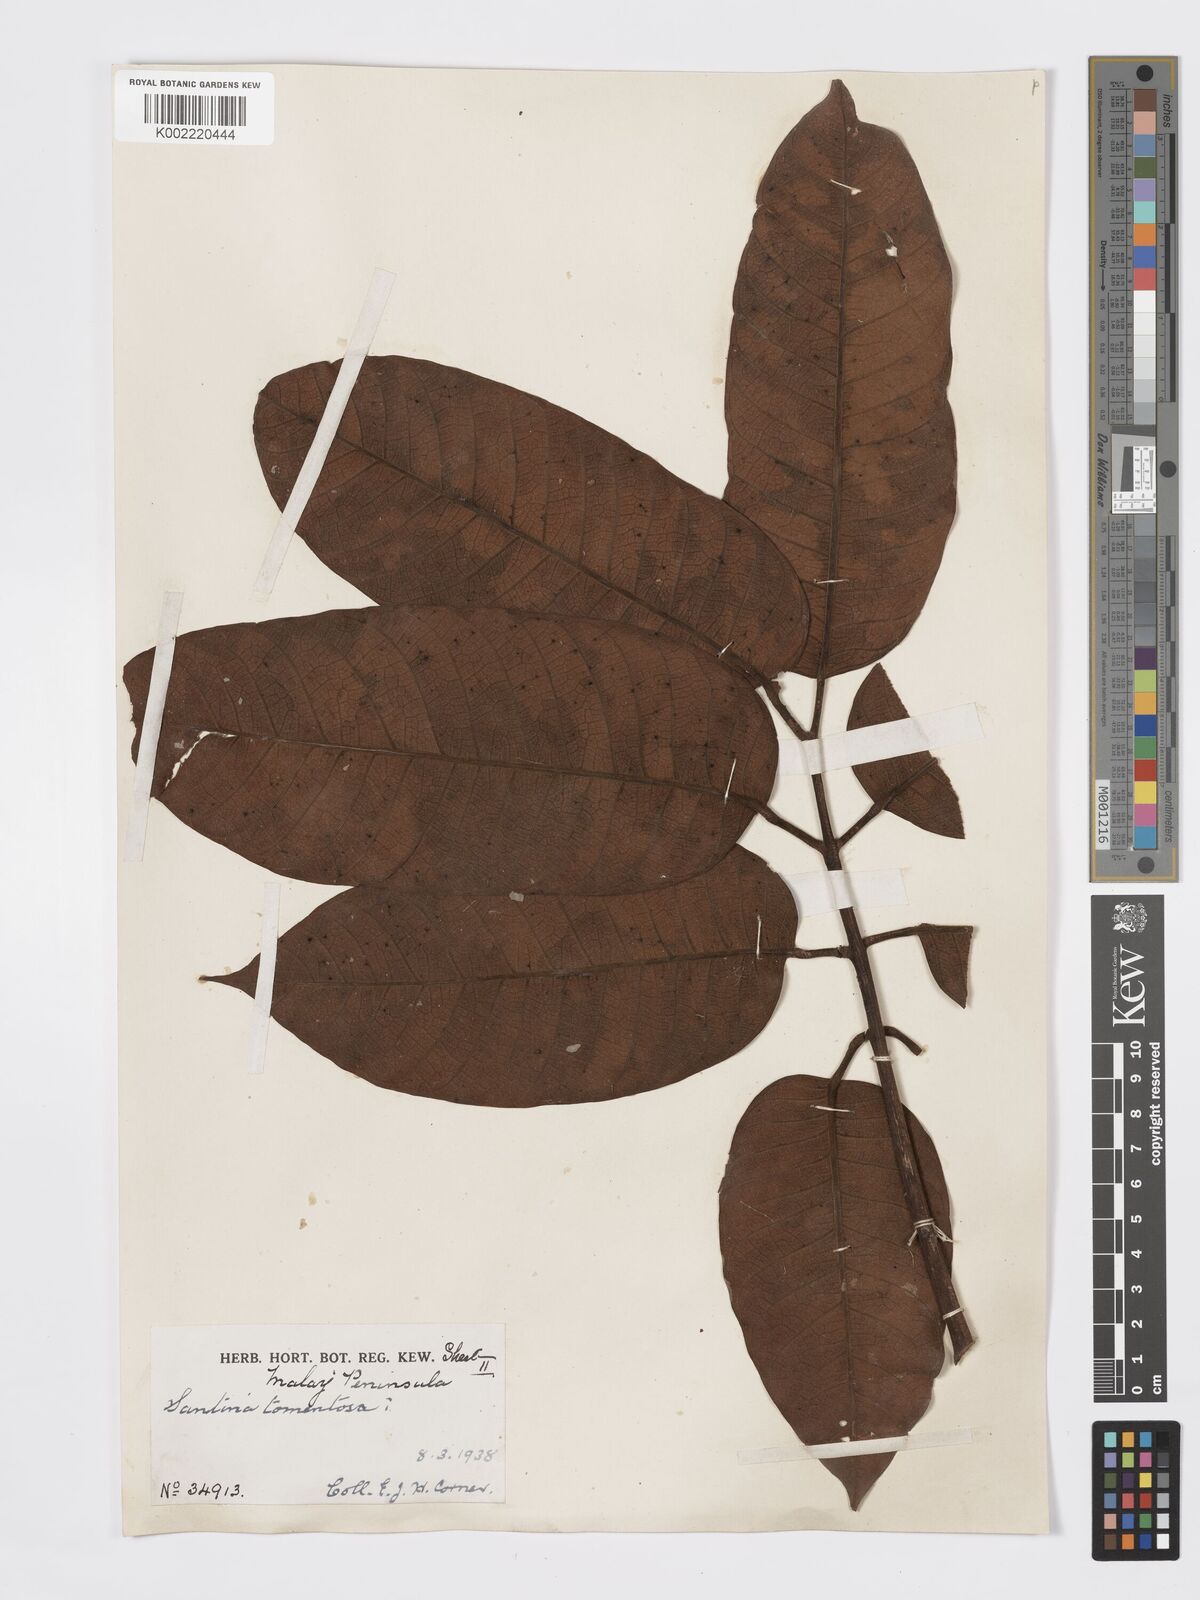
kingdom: Plantae
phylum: Tracheophyta
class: Magnoliopsida
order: Sapindales
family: Burseraceae
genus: Santiria
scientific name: Santiria tomentosa
